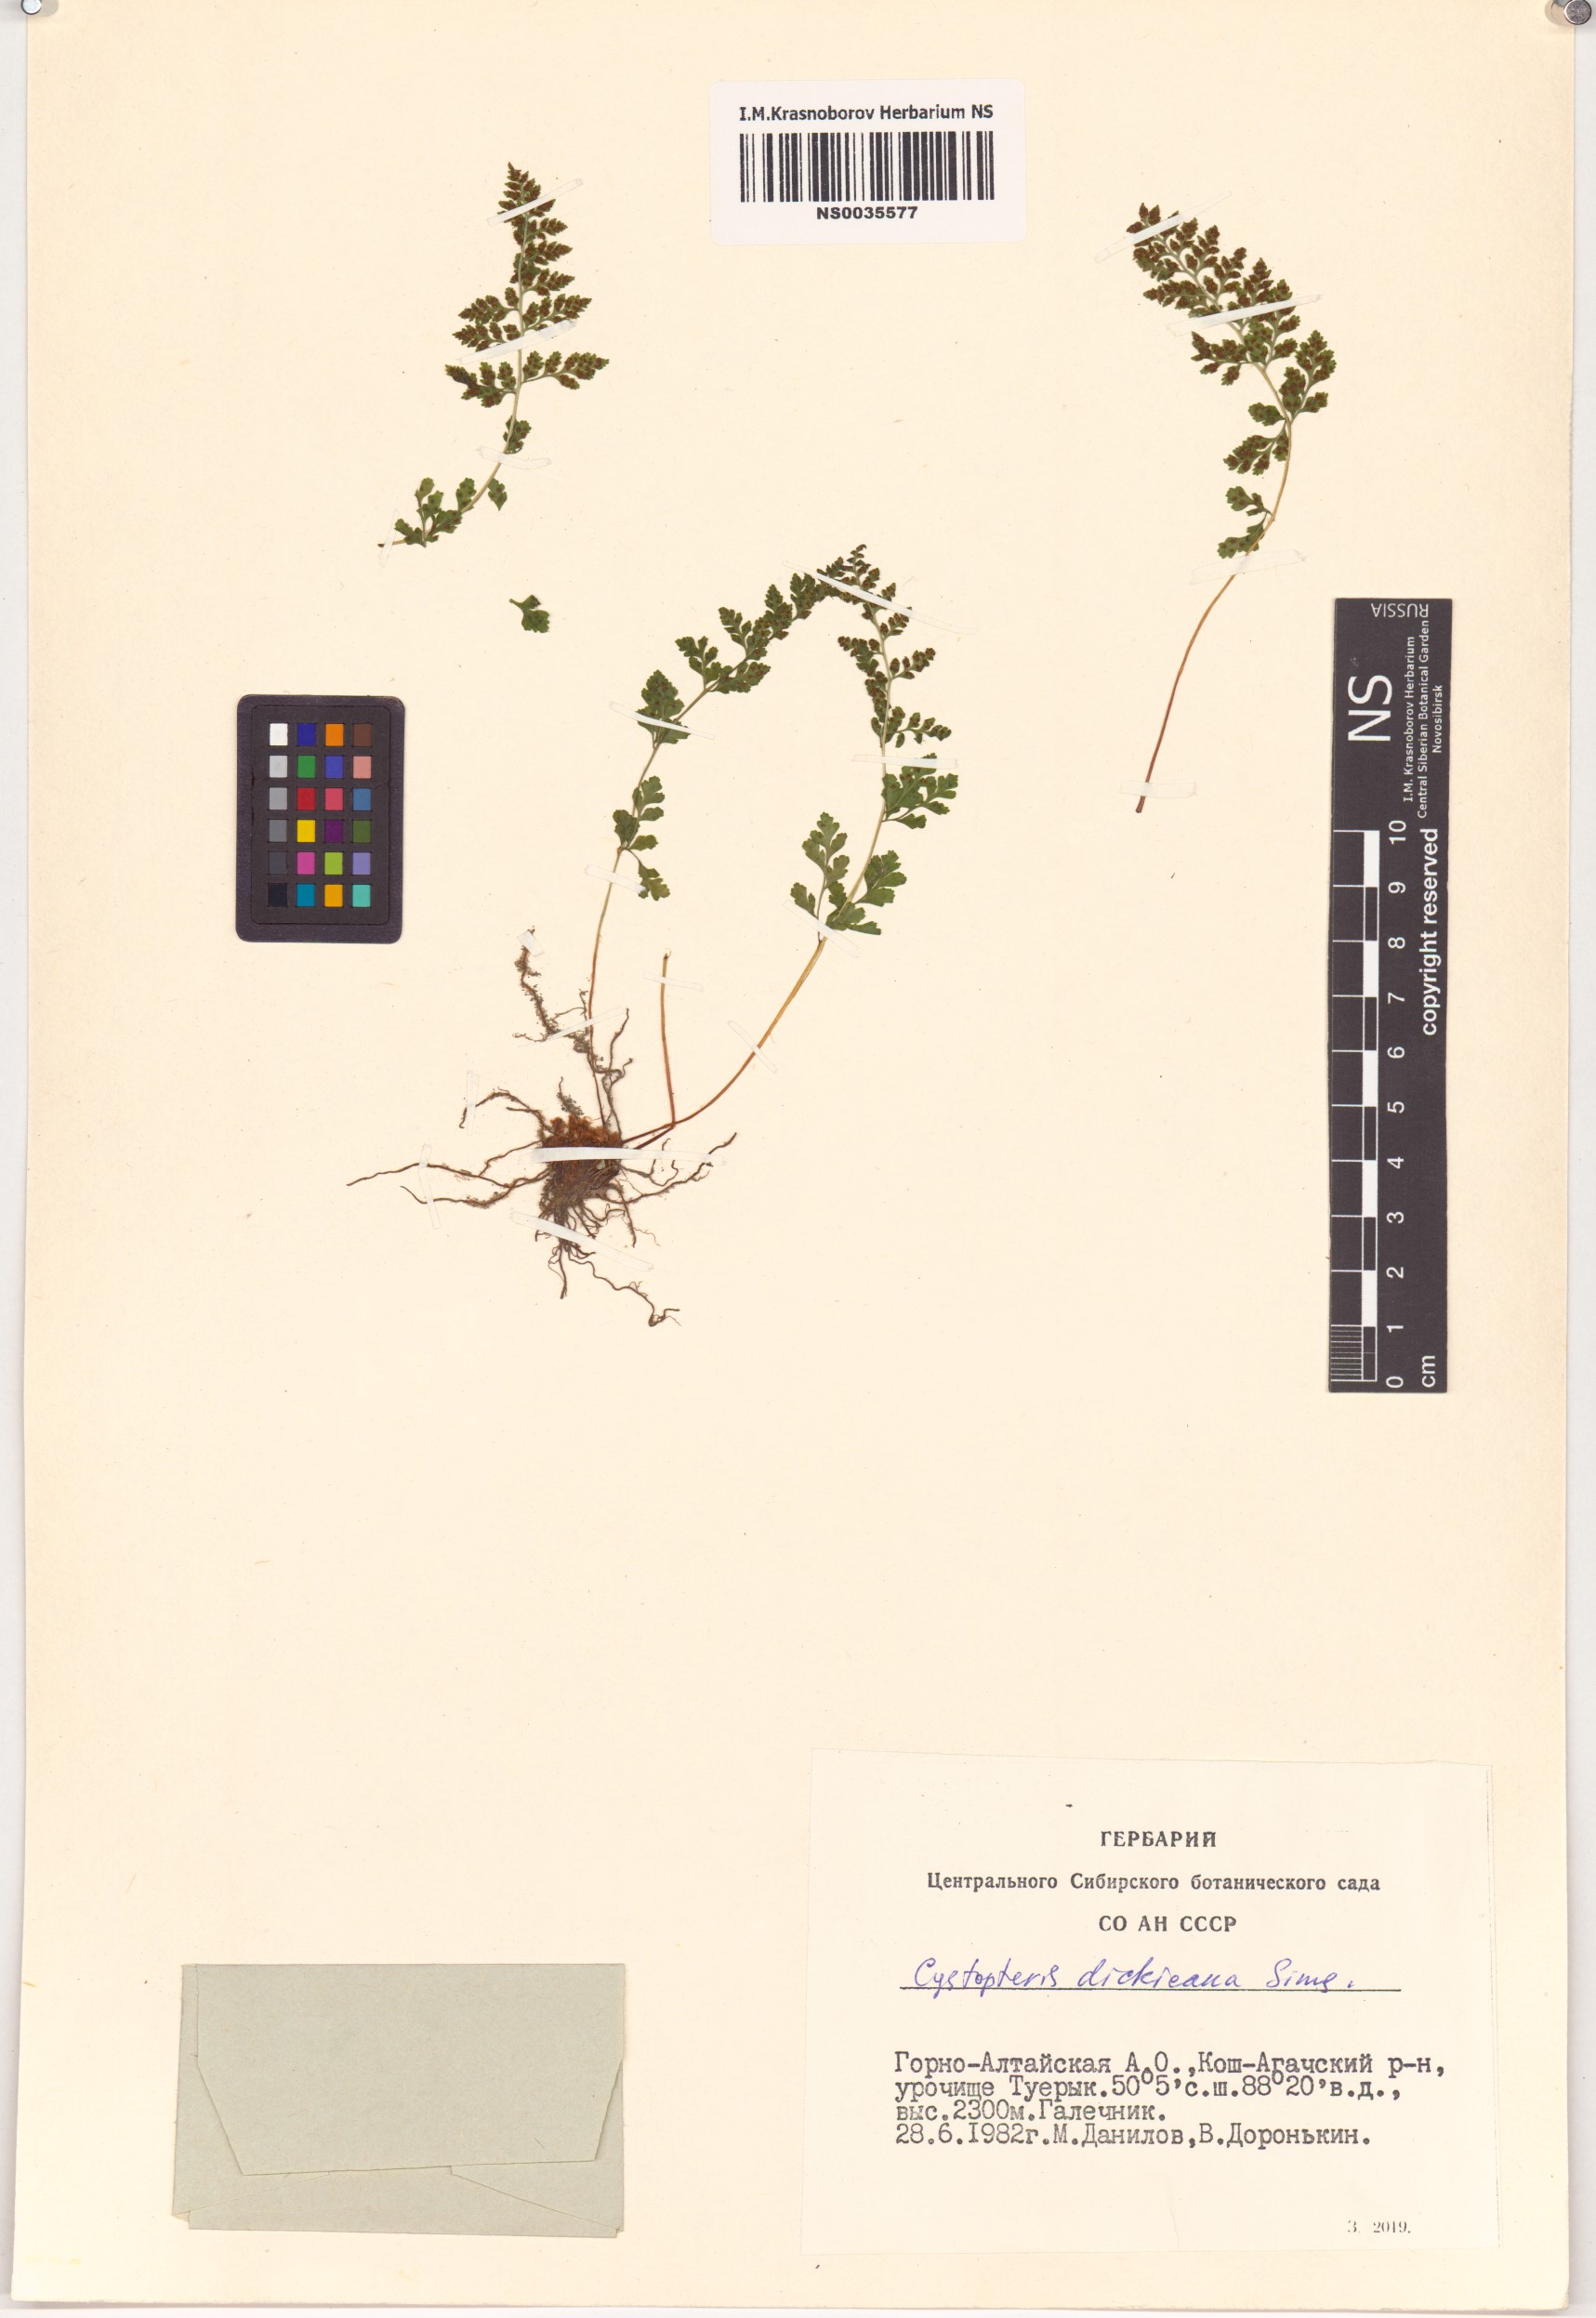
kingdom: Plantae
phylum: Tracheophyta
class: Polypodiopsida
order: Polypodiales
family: Cystopteridaceae
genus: Cystopteris
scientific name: Cystopteris dickieana
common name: Dickie's bladder-fern
